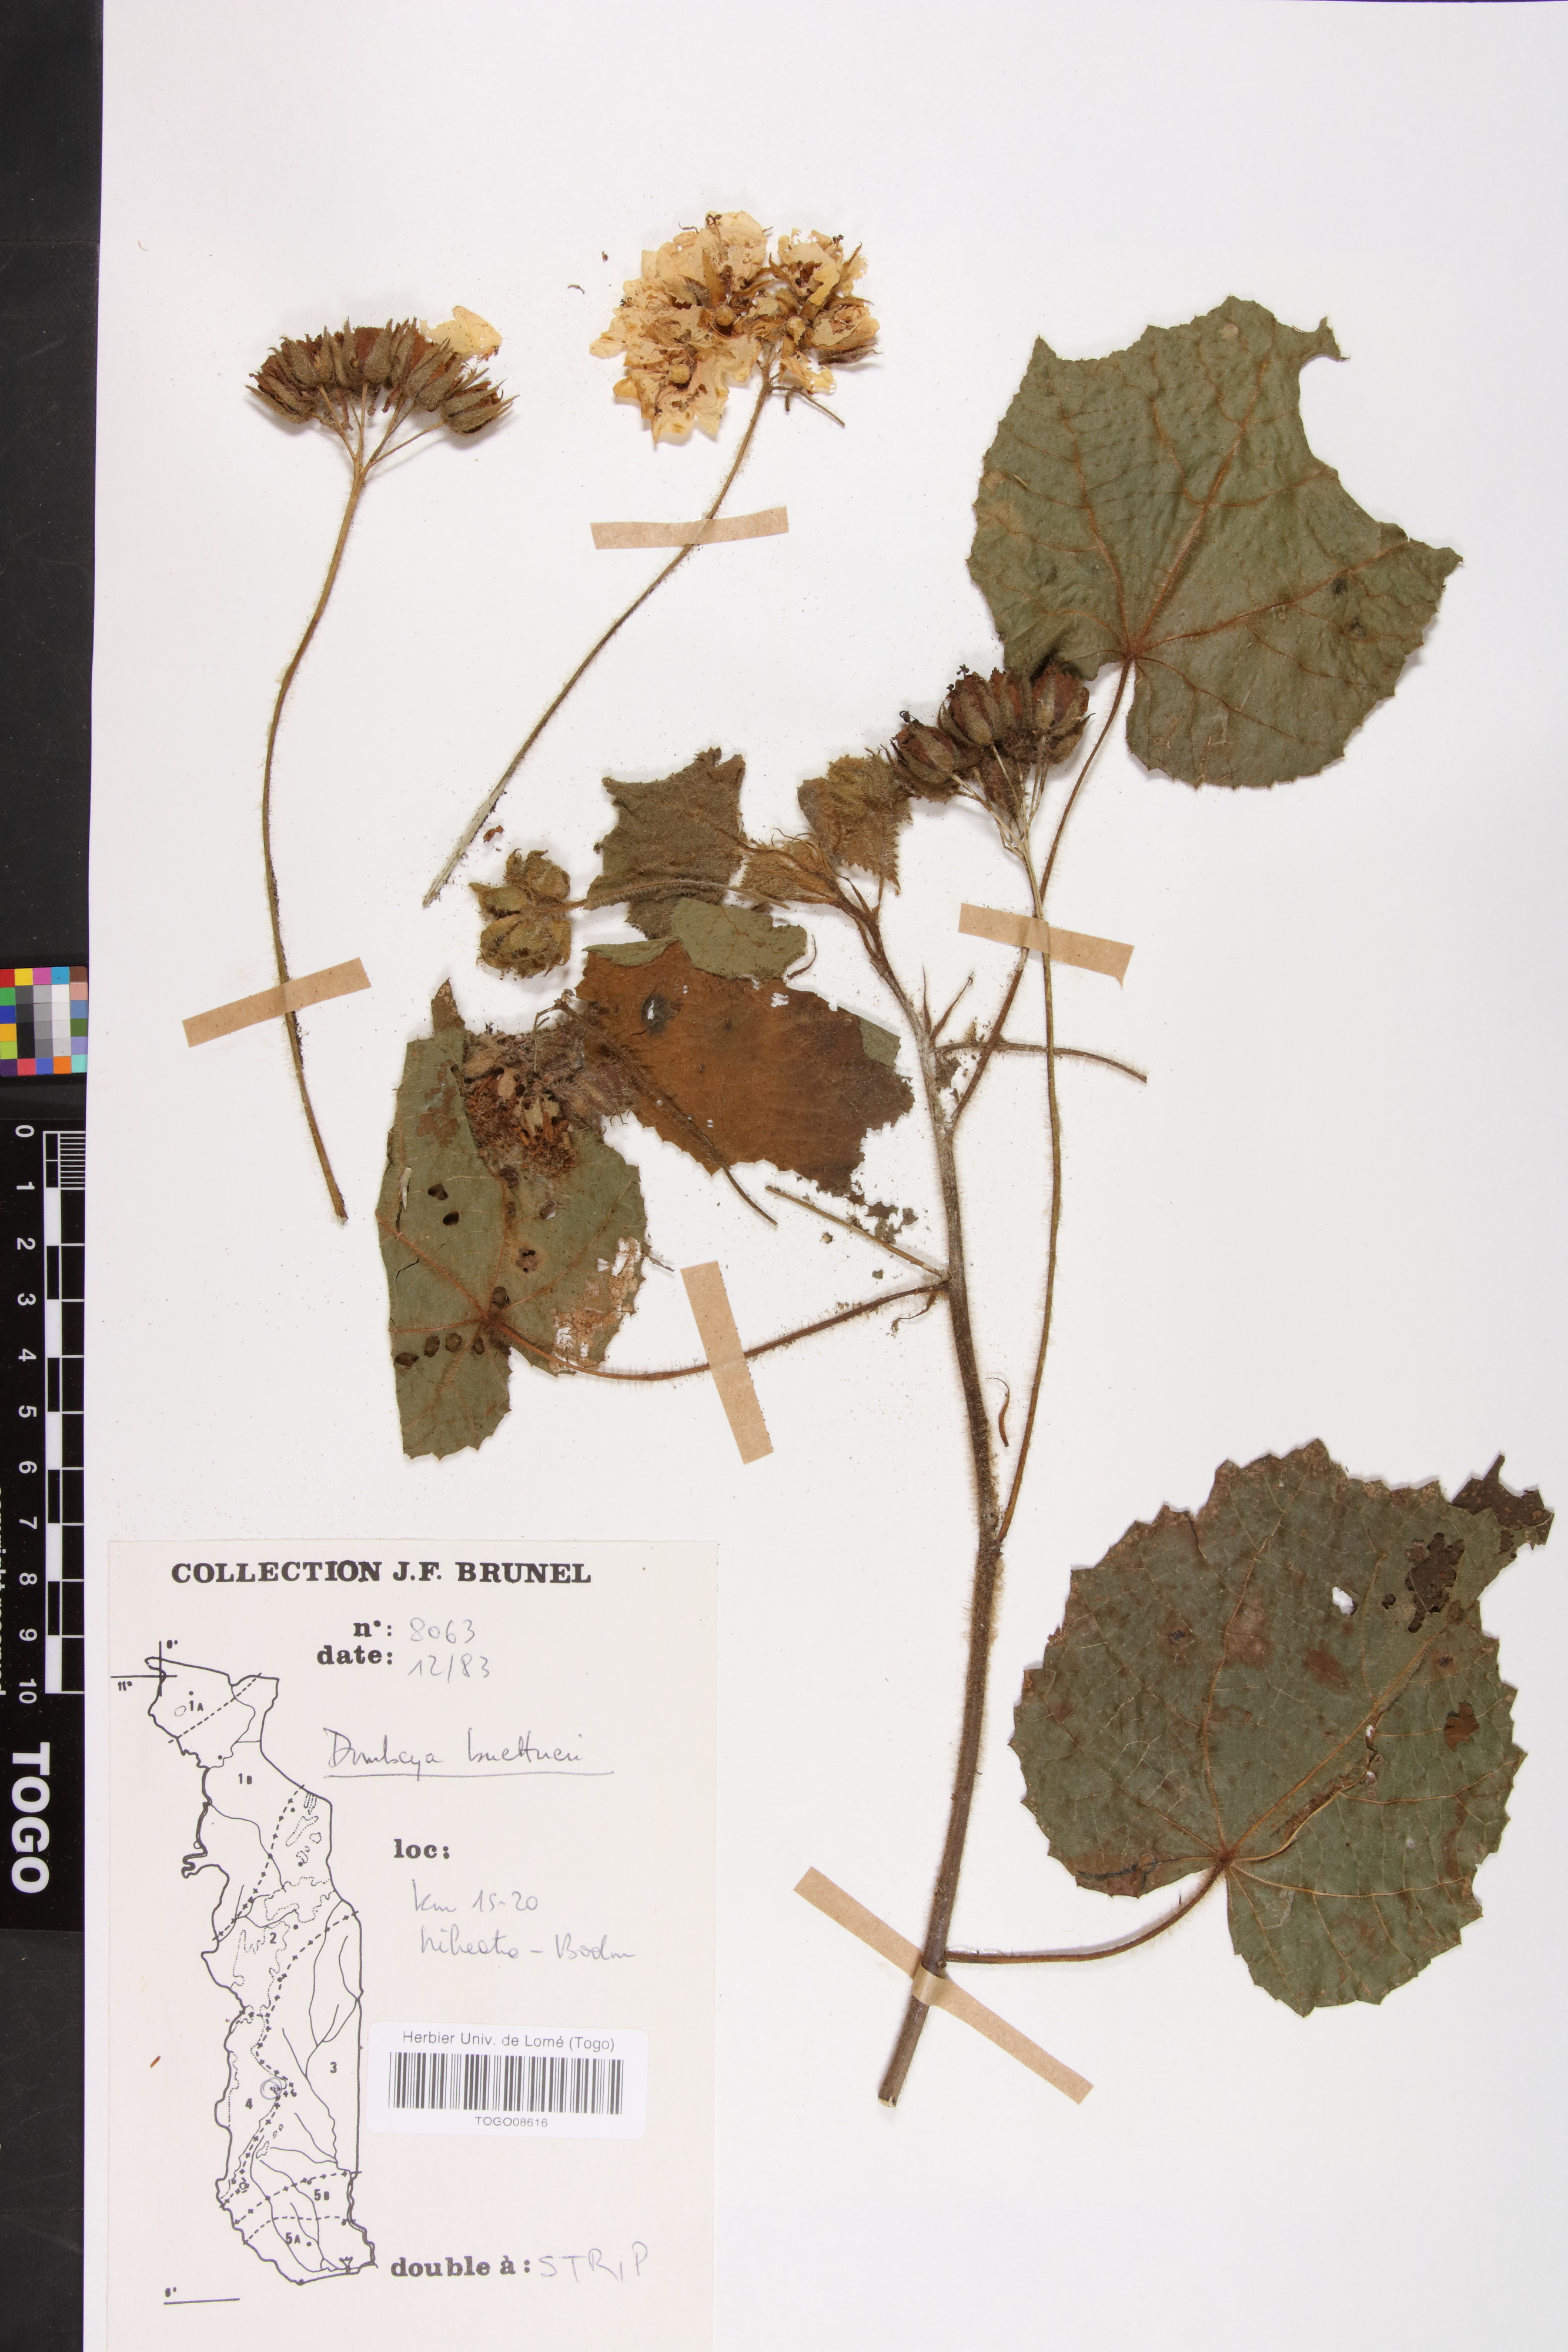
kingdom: Plantae
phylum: Tracheophyta
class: Magnoliopsida
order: Malvales
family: Malvaceae
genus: Dombeya
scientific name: Dombeya buettneri
